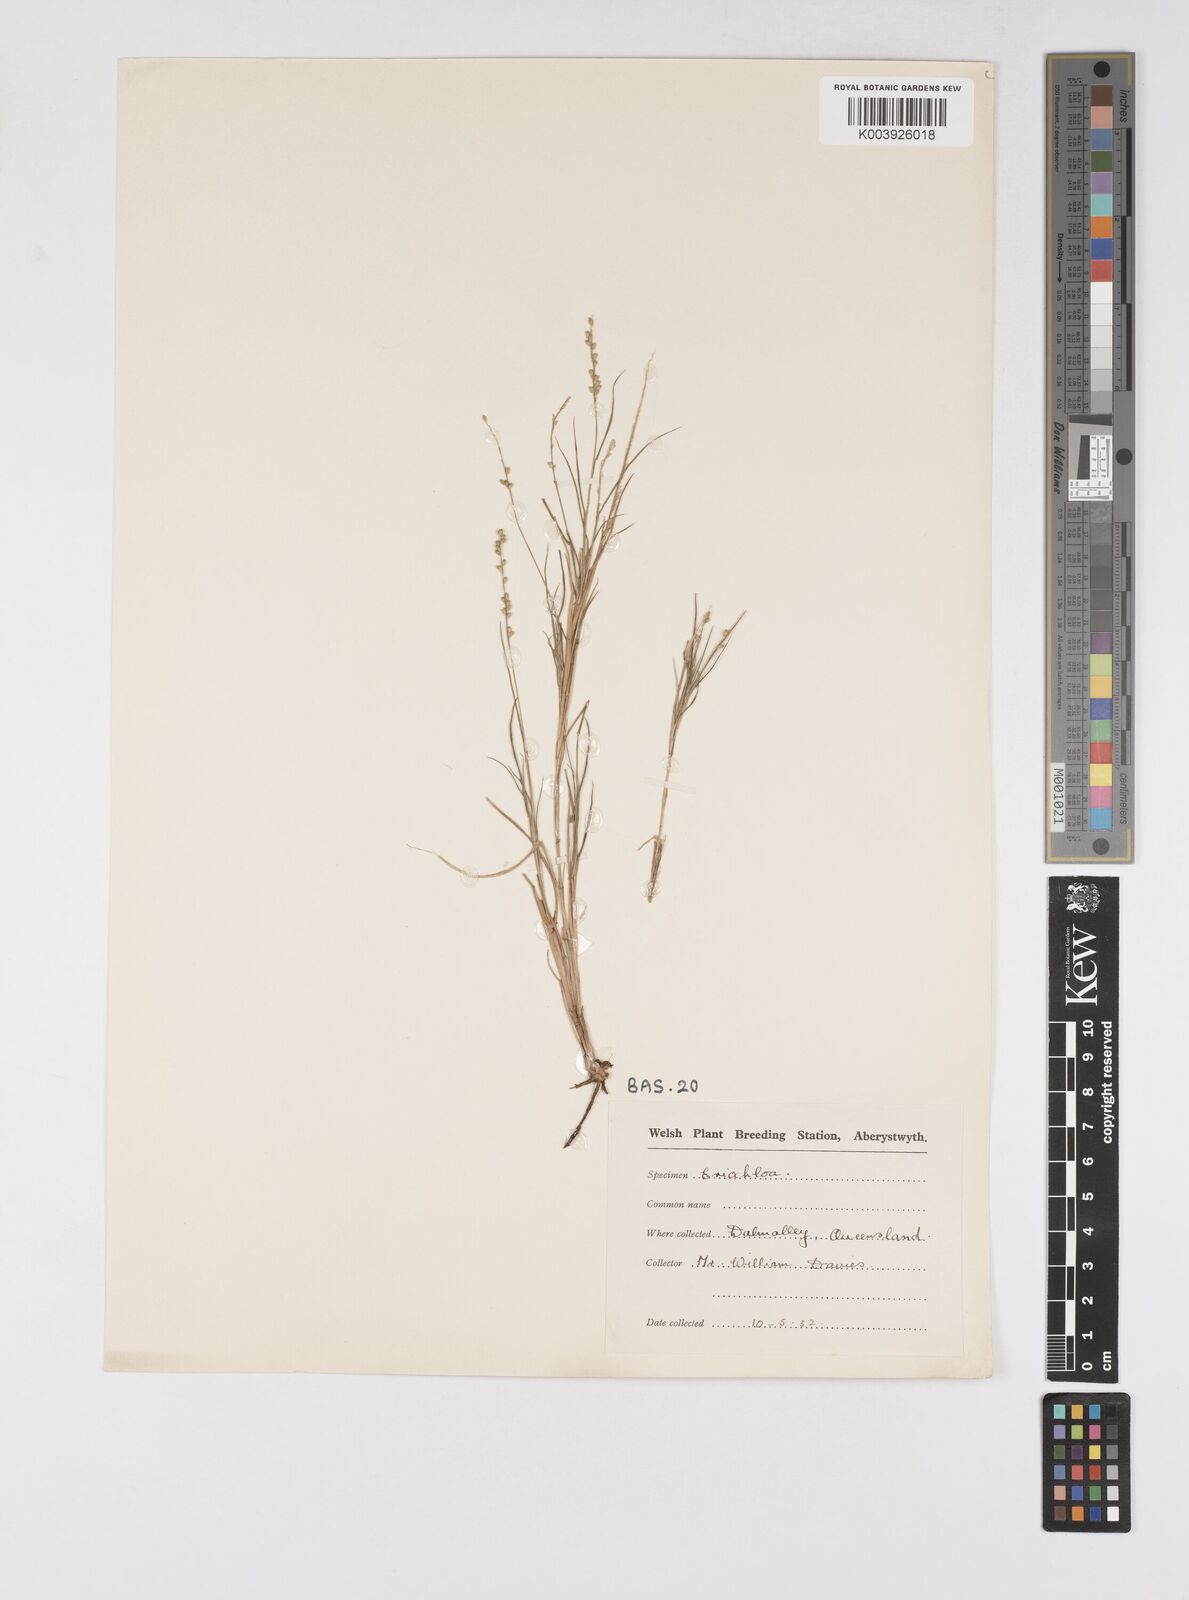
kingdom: Plantae
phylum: Tracheophyta
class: Liliopsida
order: Poales
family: Poaceae
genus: Eriochloa
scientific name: Eriochloa
